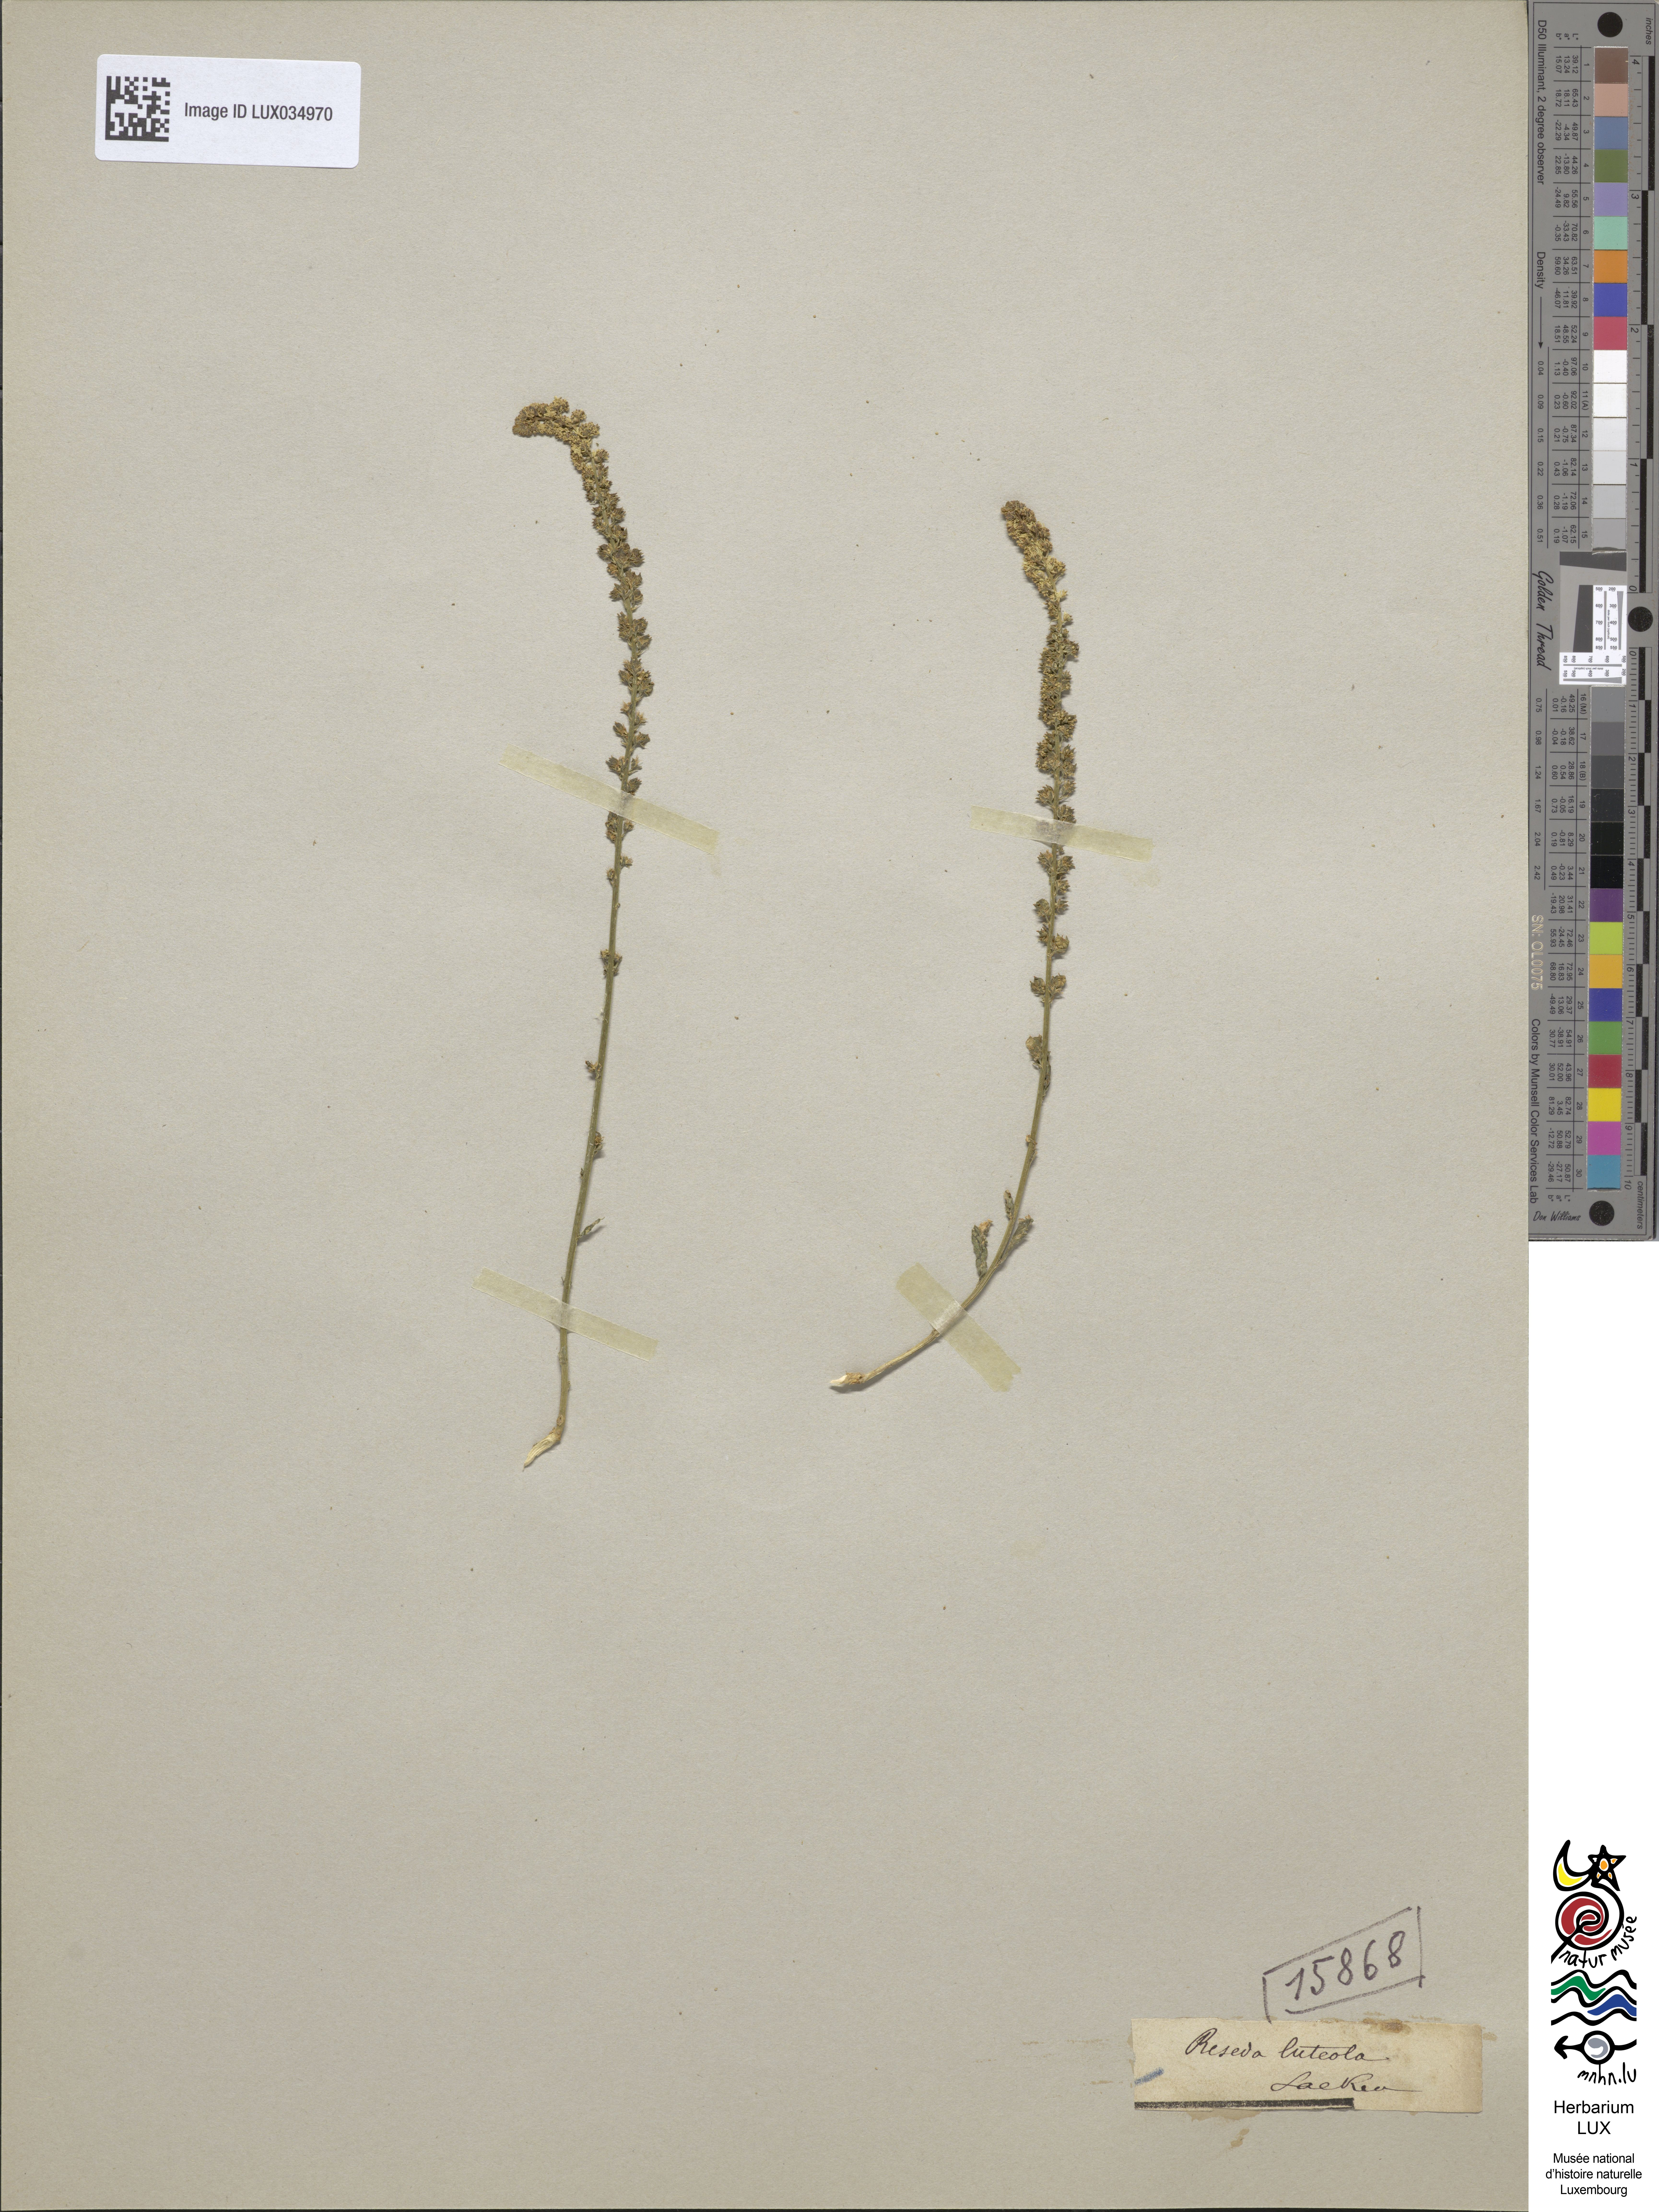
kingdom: Plantae
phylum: Tracheophyta
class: Magnoliopsida
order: Brassicales
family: Resedaceae
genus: Reseda
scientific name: Reseda luteola
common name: Weld
